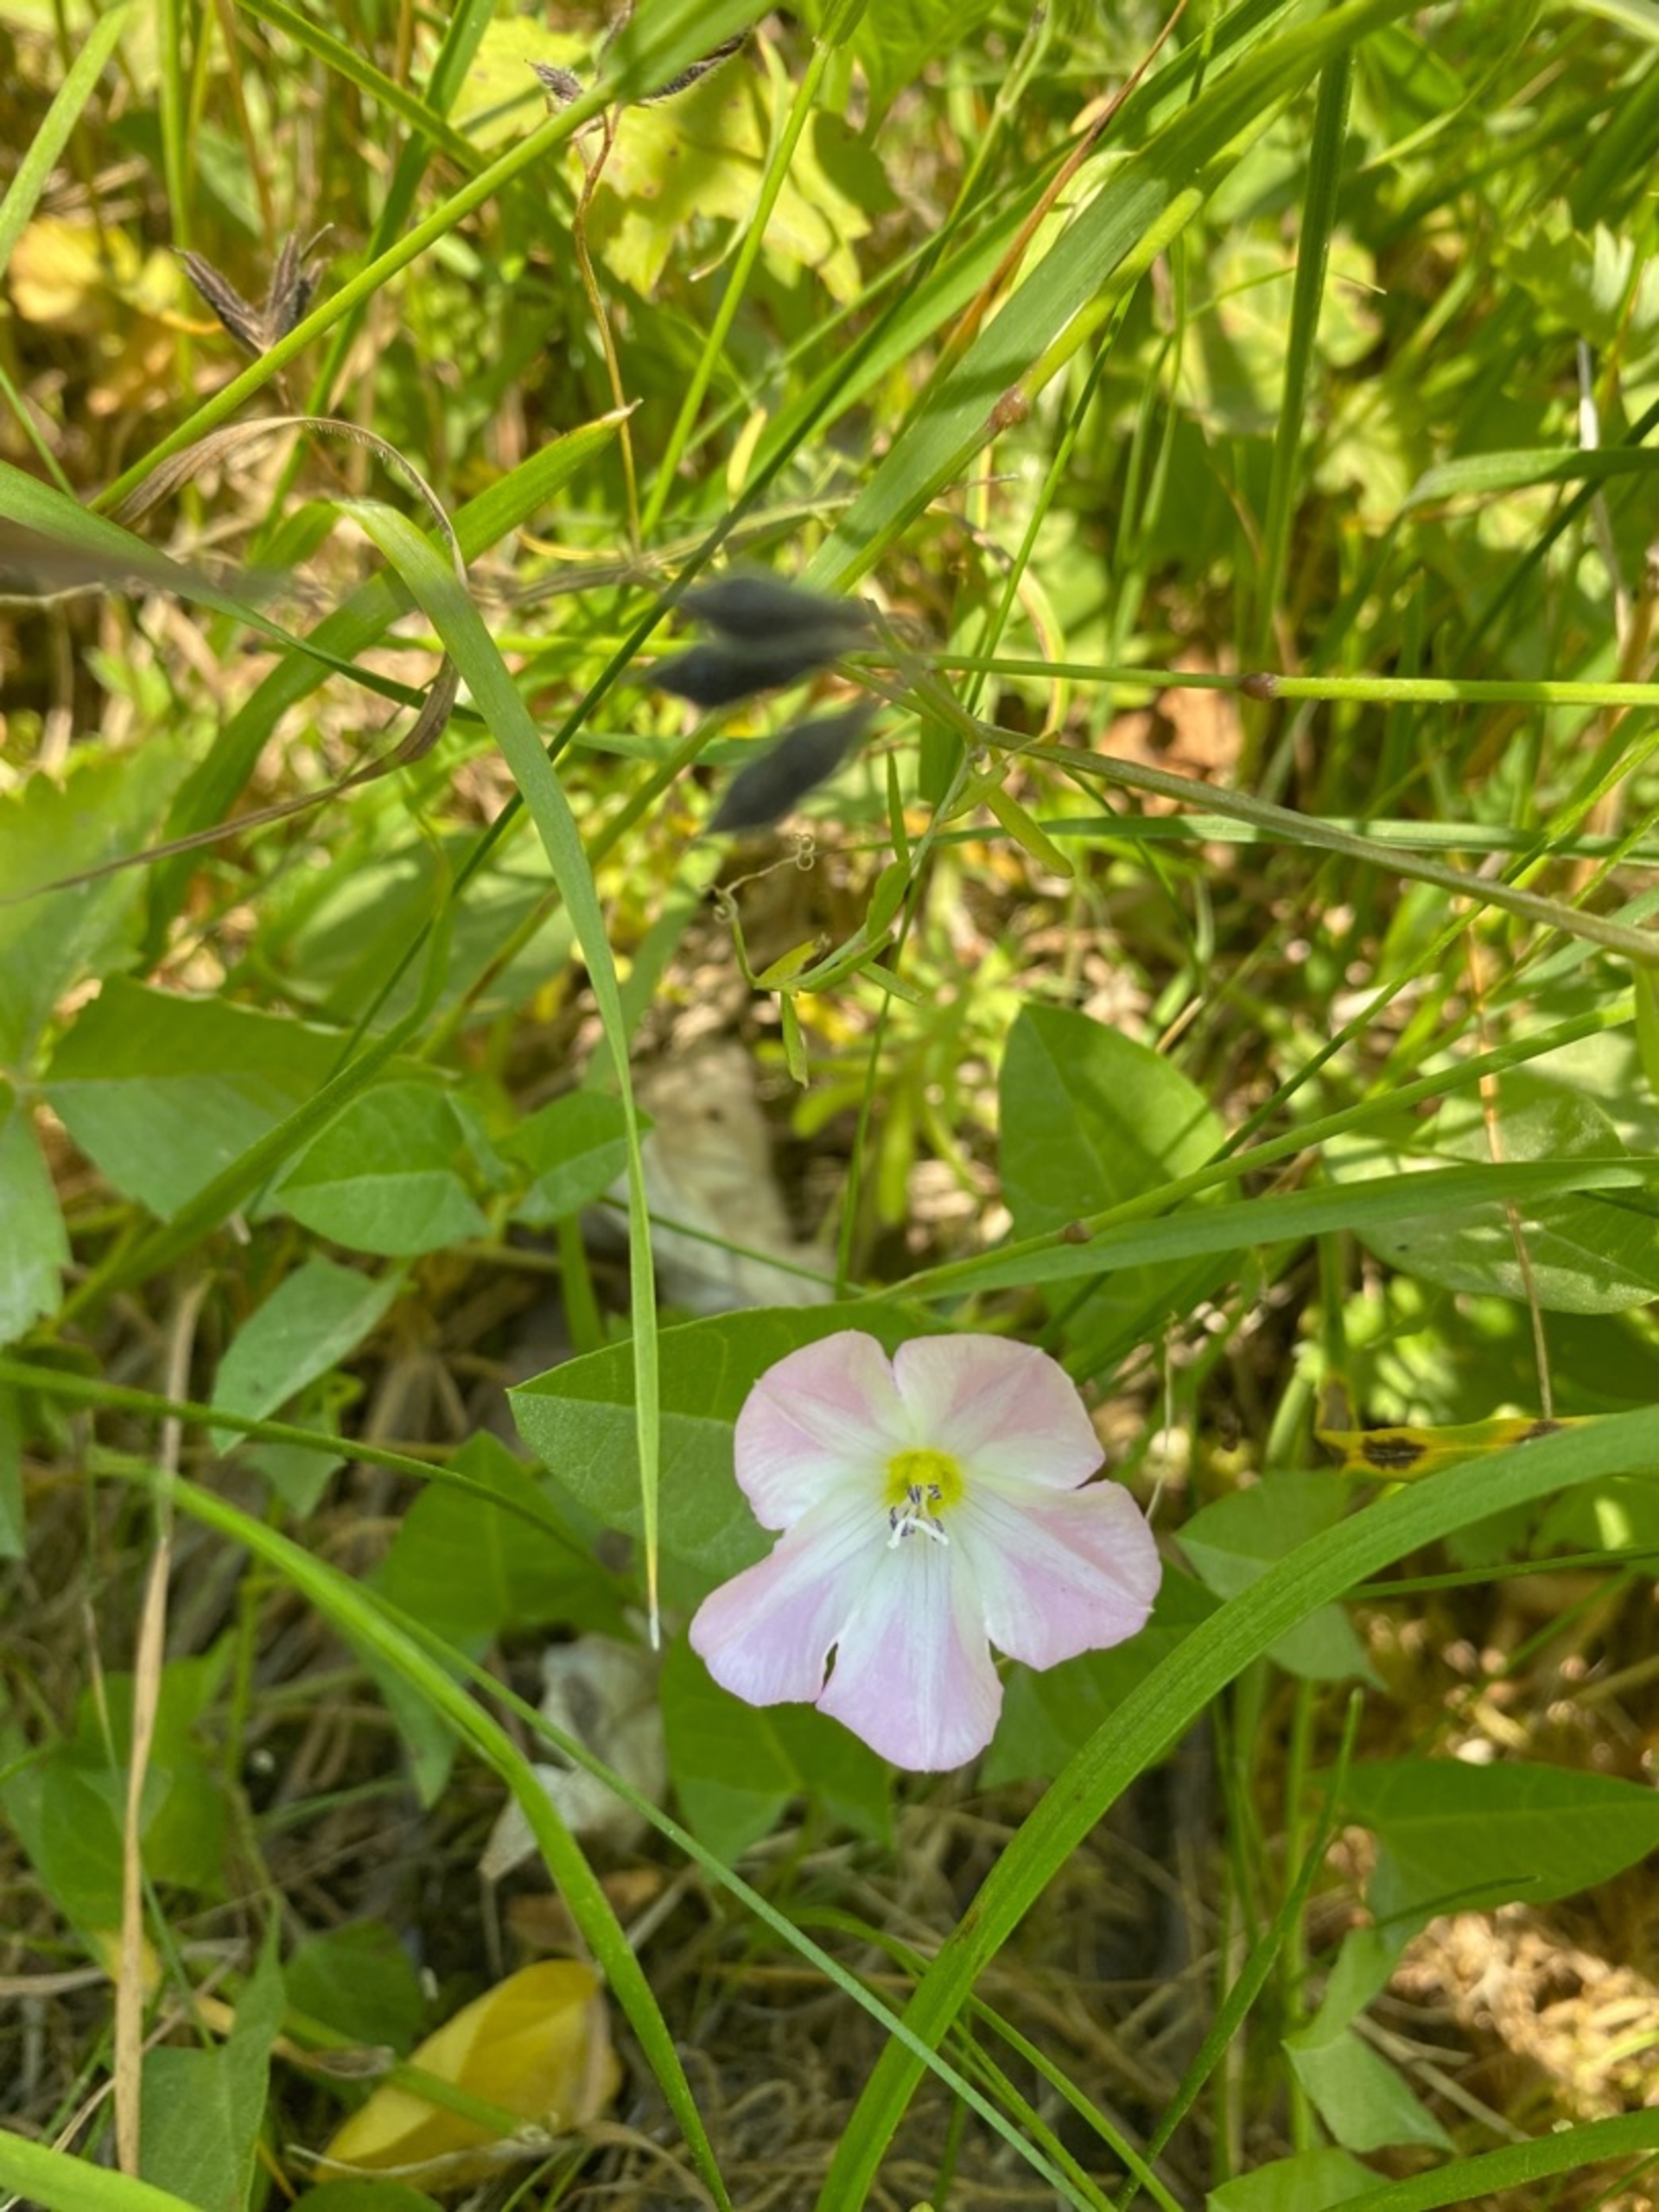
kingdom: Plantae
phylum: Tracheophyta
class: Magnoliopsida
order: Solanales
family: Convolvulaceae
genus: Convolvulus
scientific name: Convolvulus arvensis
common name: Ager-snerle
